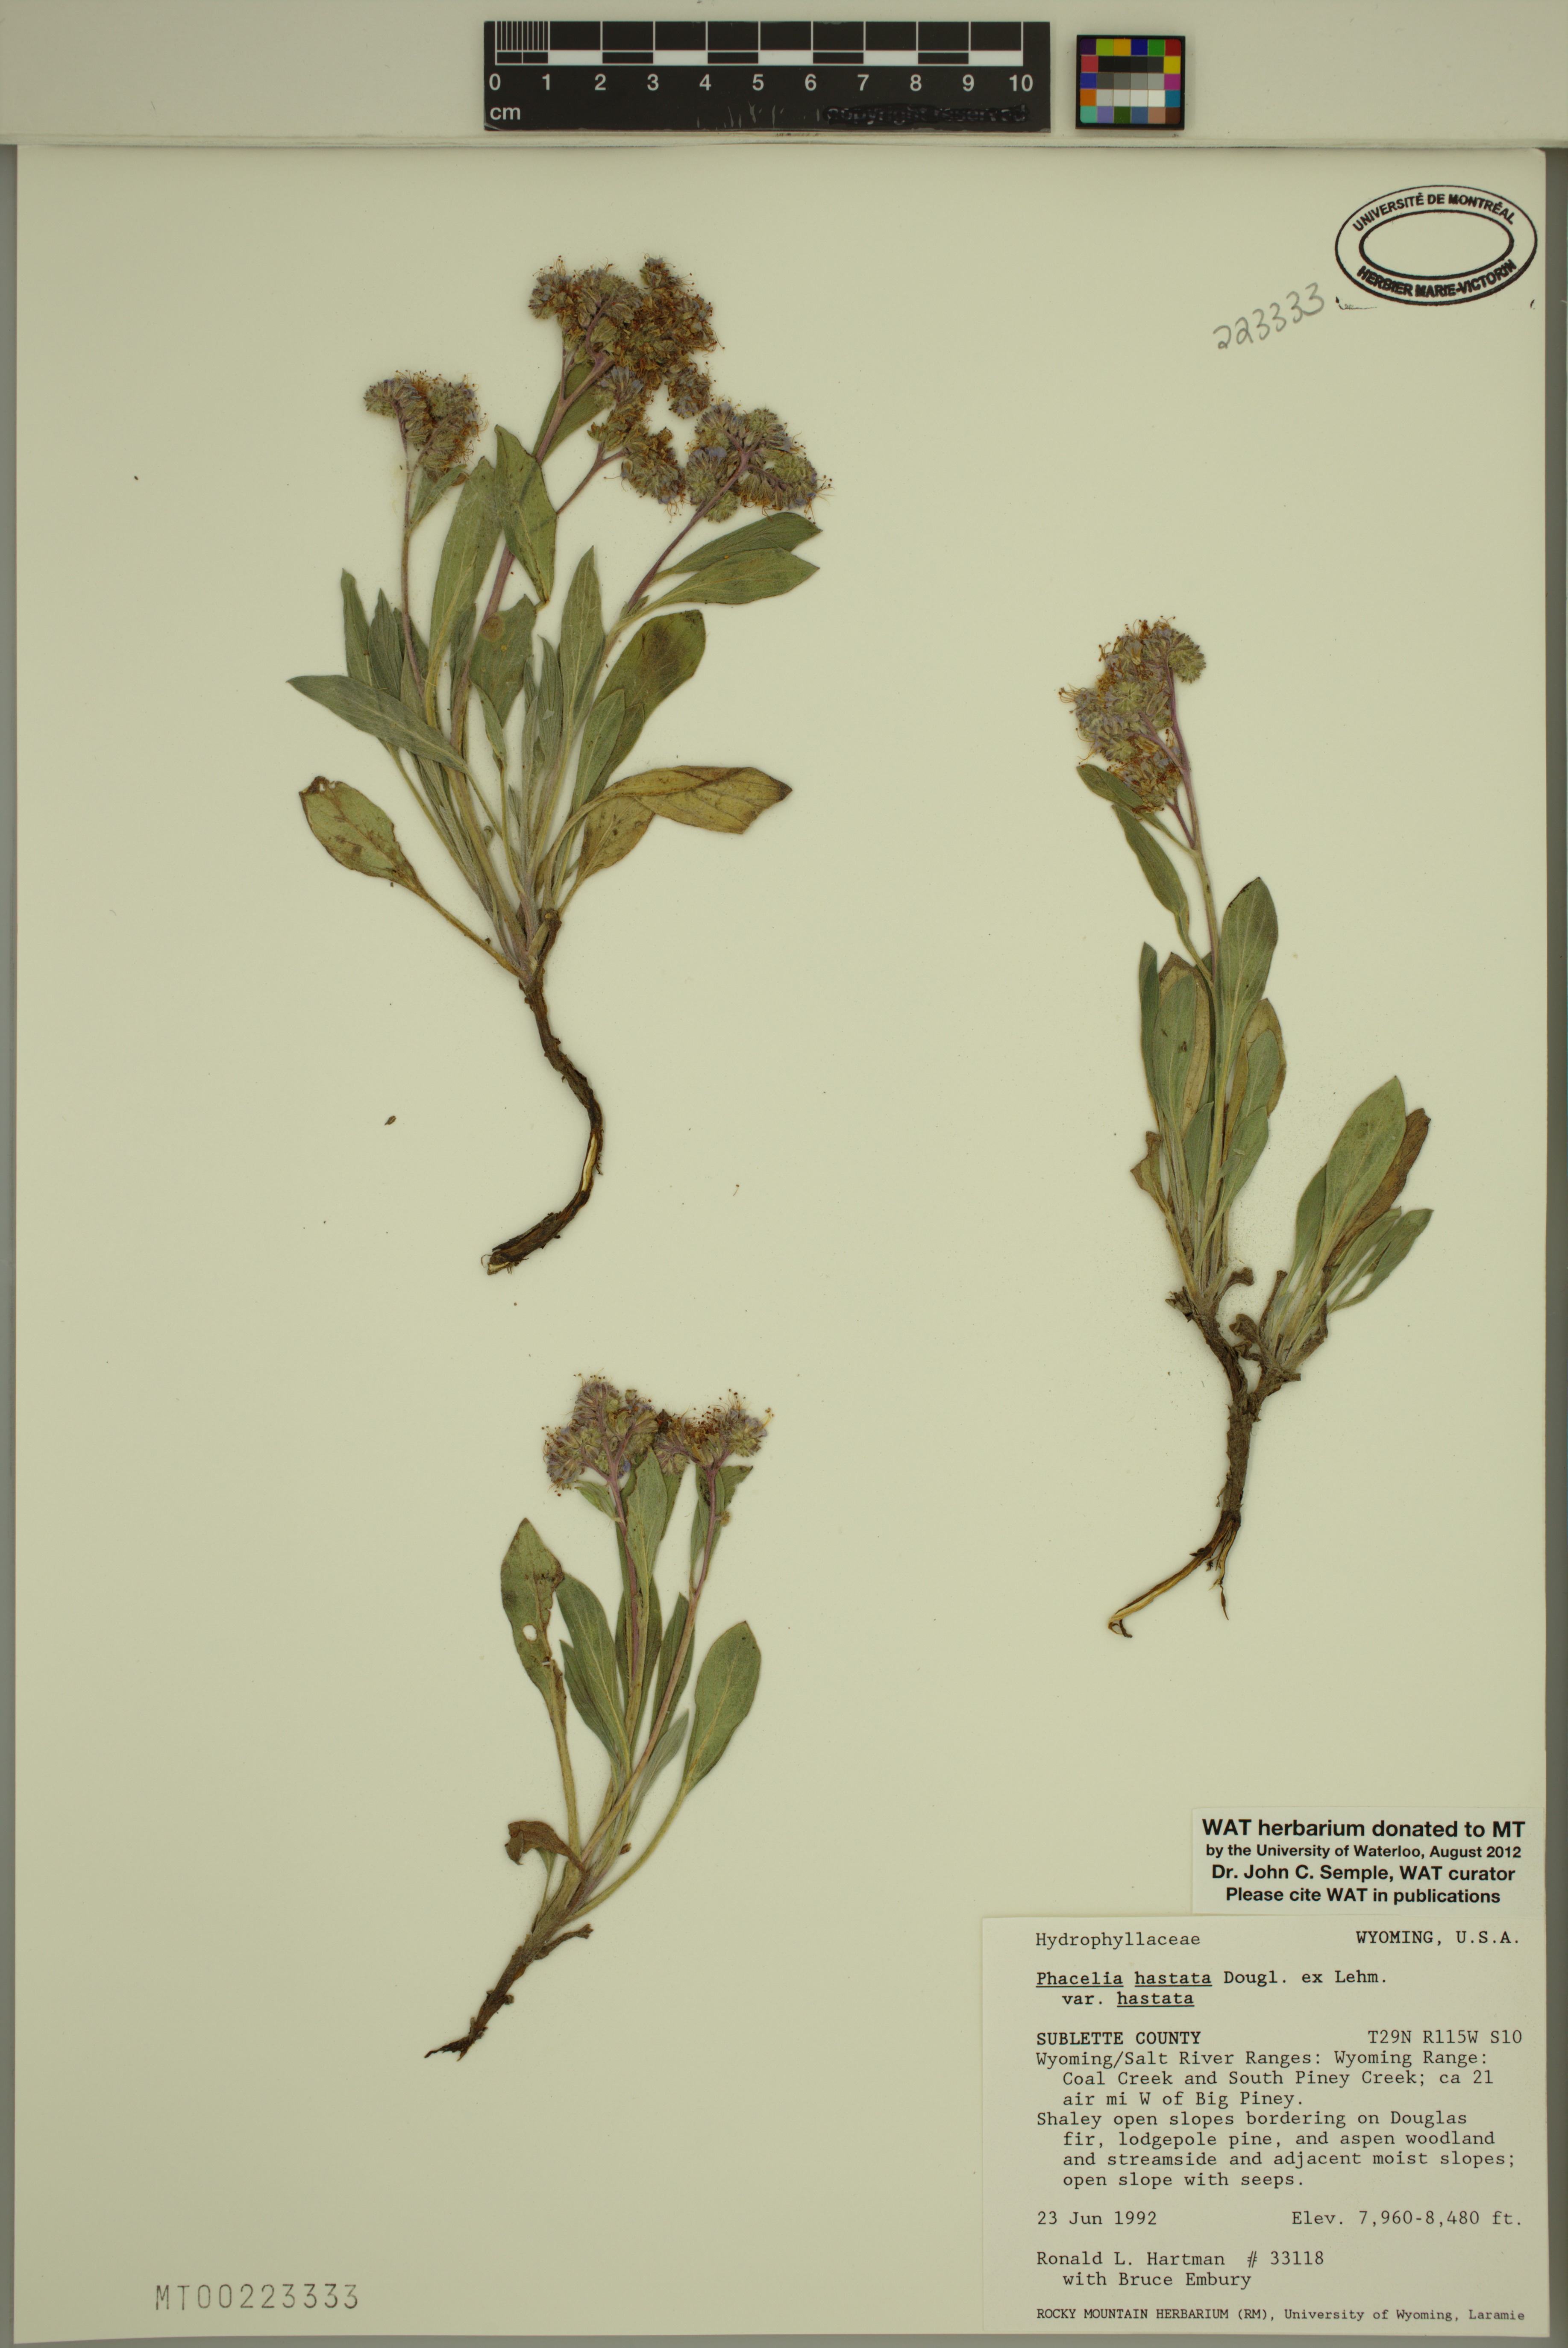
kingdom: Plantae
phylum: Tracheophyta
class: Magnoliopsida
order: Boraginales
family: Hydrophyllaceae
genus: Phacelia
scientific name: Phacelia hastata
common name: Silver-leaved phacelia
